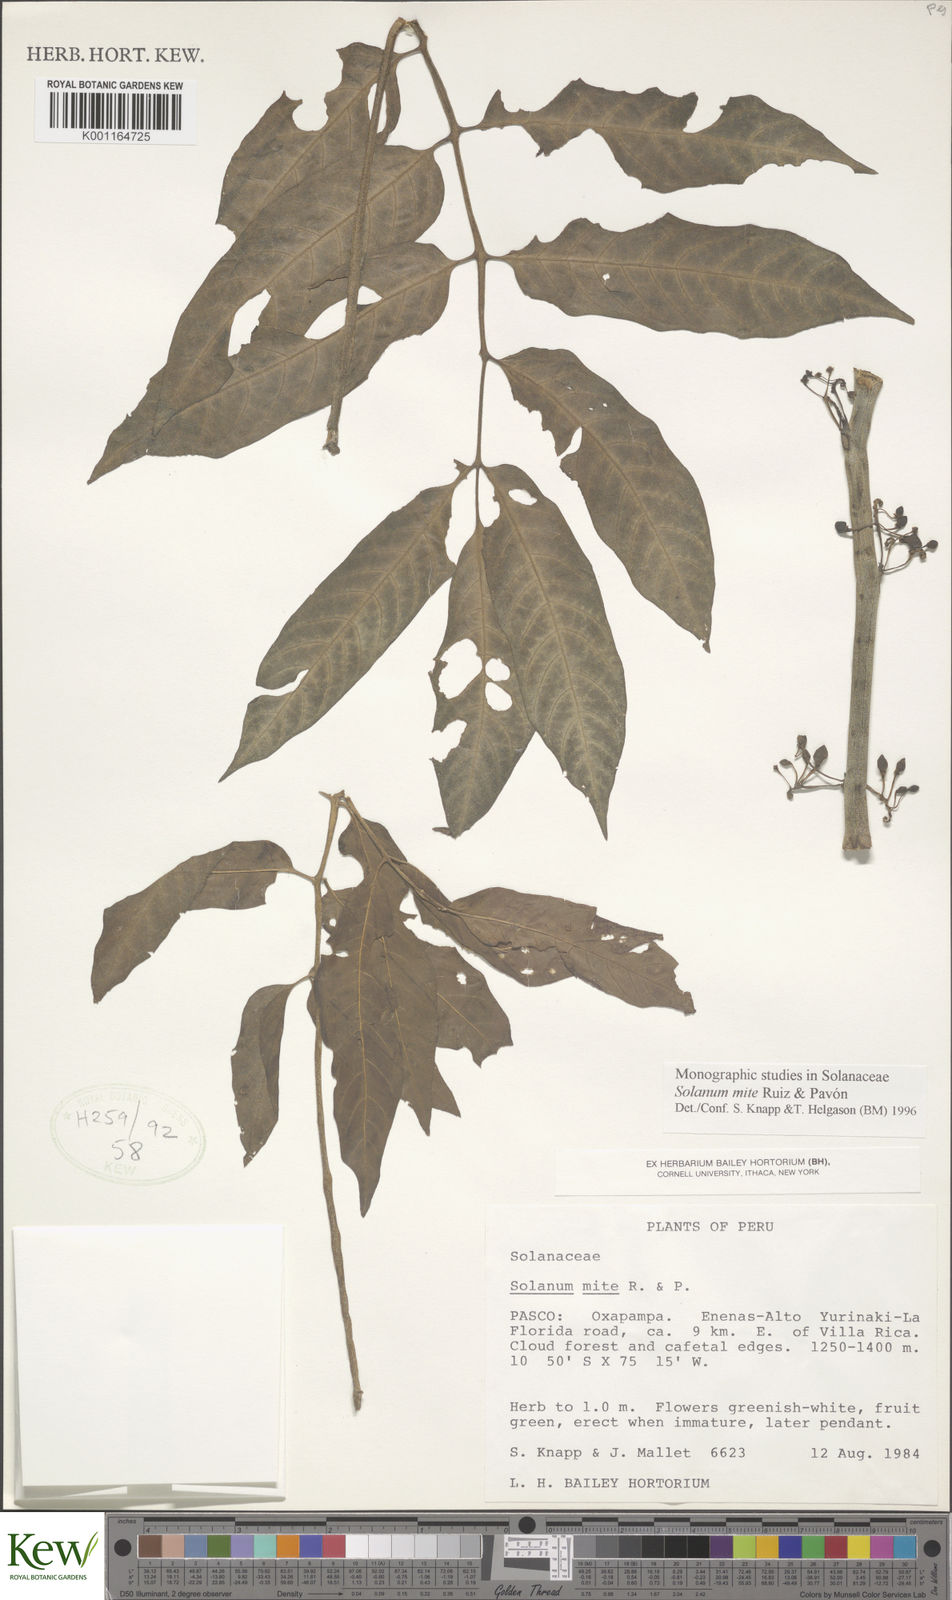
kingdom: Plantae
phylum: Tracheophyta
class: Magnoliopsida
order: Solanales
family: Solanaceae
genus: Solanum
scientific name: Solanum mite
